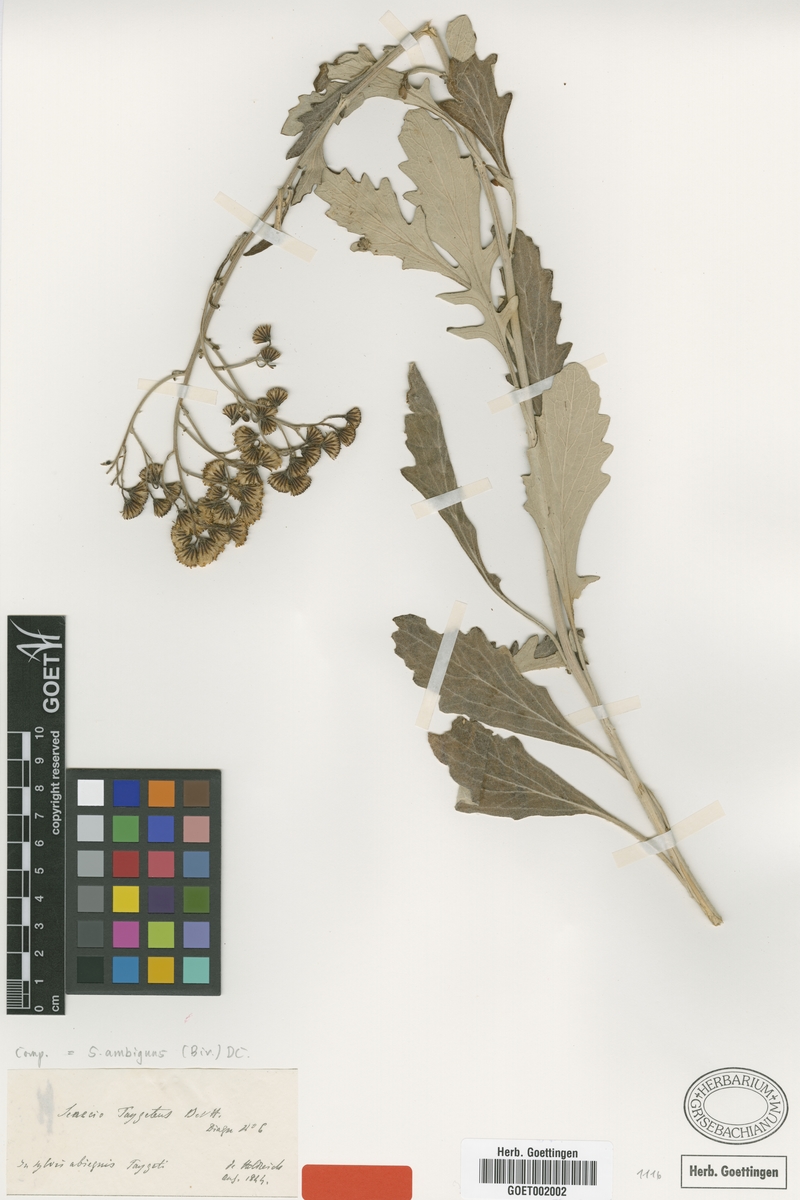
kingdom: Plantae
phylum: Tracheophyta
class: Magnoliopsida
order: Asterales
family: Asteraceae
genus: Jacobaea
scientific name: Jacobaea ambigua
